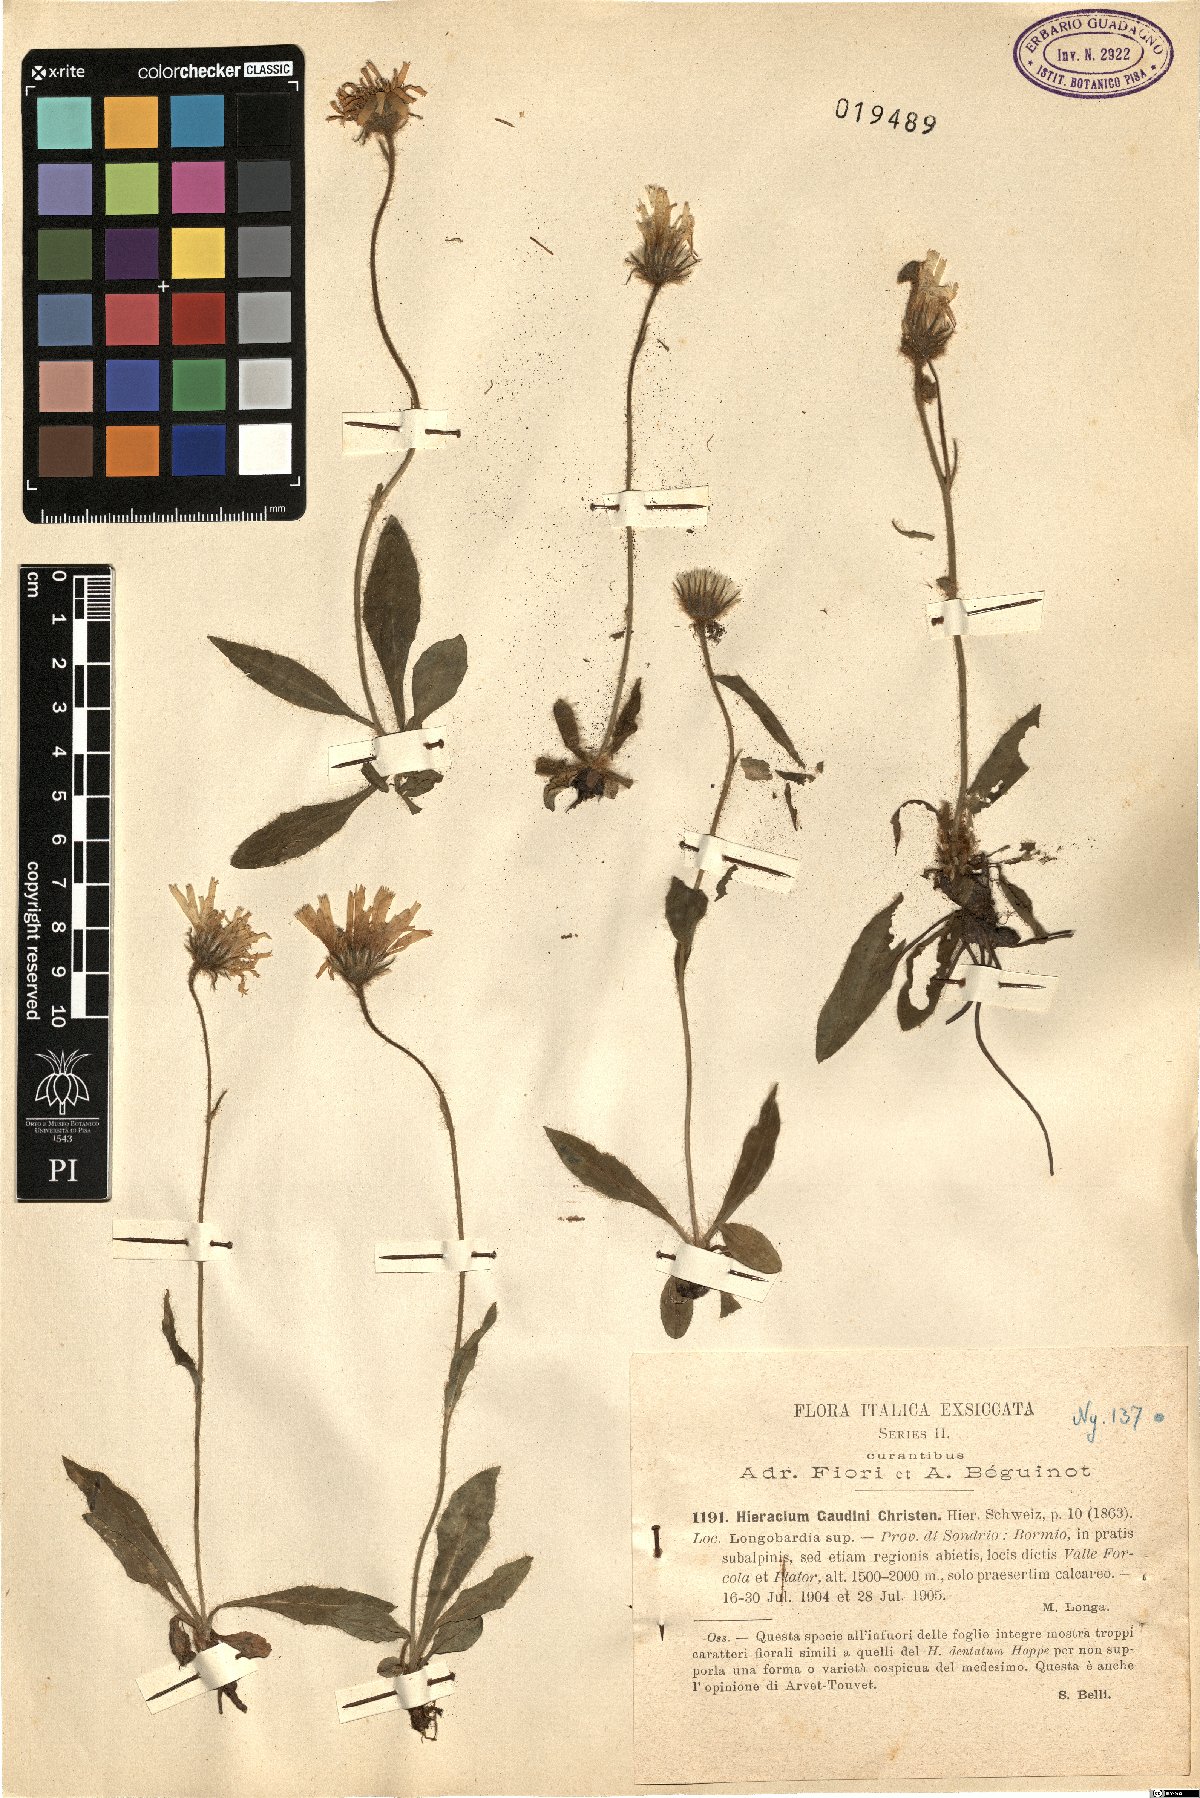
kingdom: Plantae
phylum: Tracheophyta
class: Magnoliopsida
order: Asterales
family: Asteraceae
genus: Hieracium
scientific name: Hieracium dentatum
